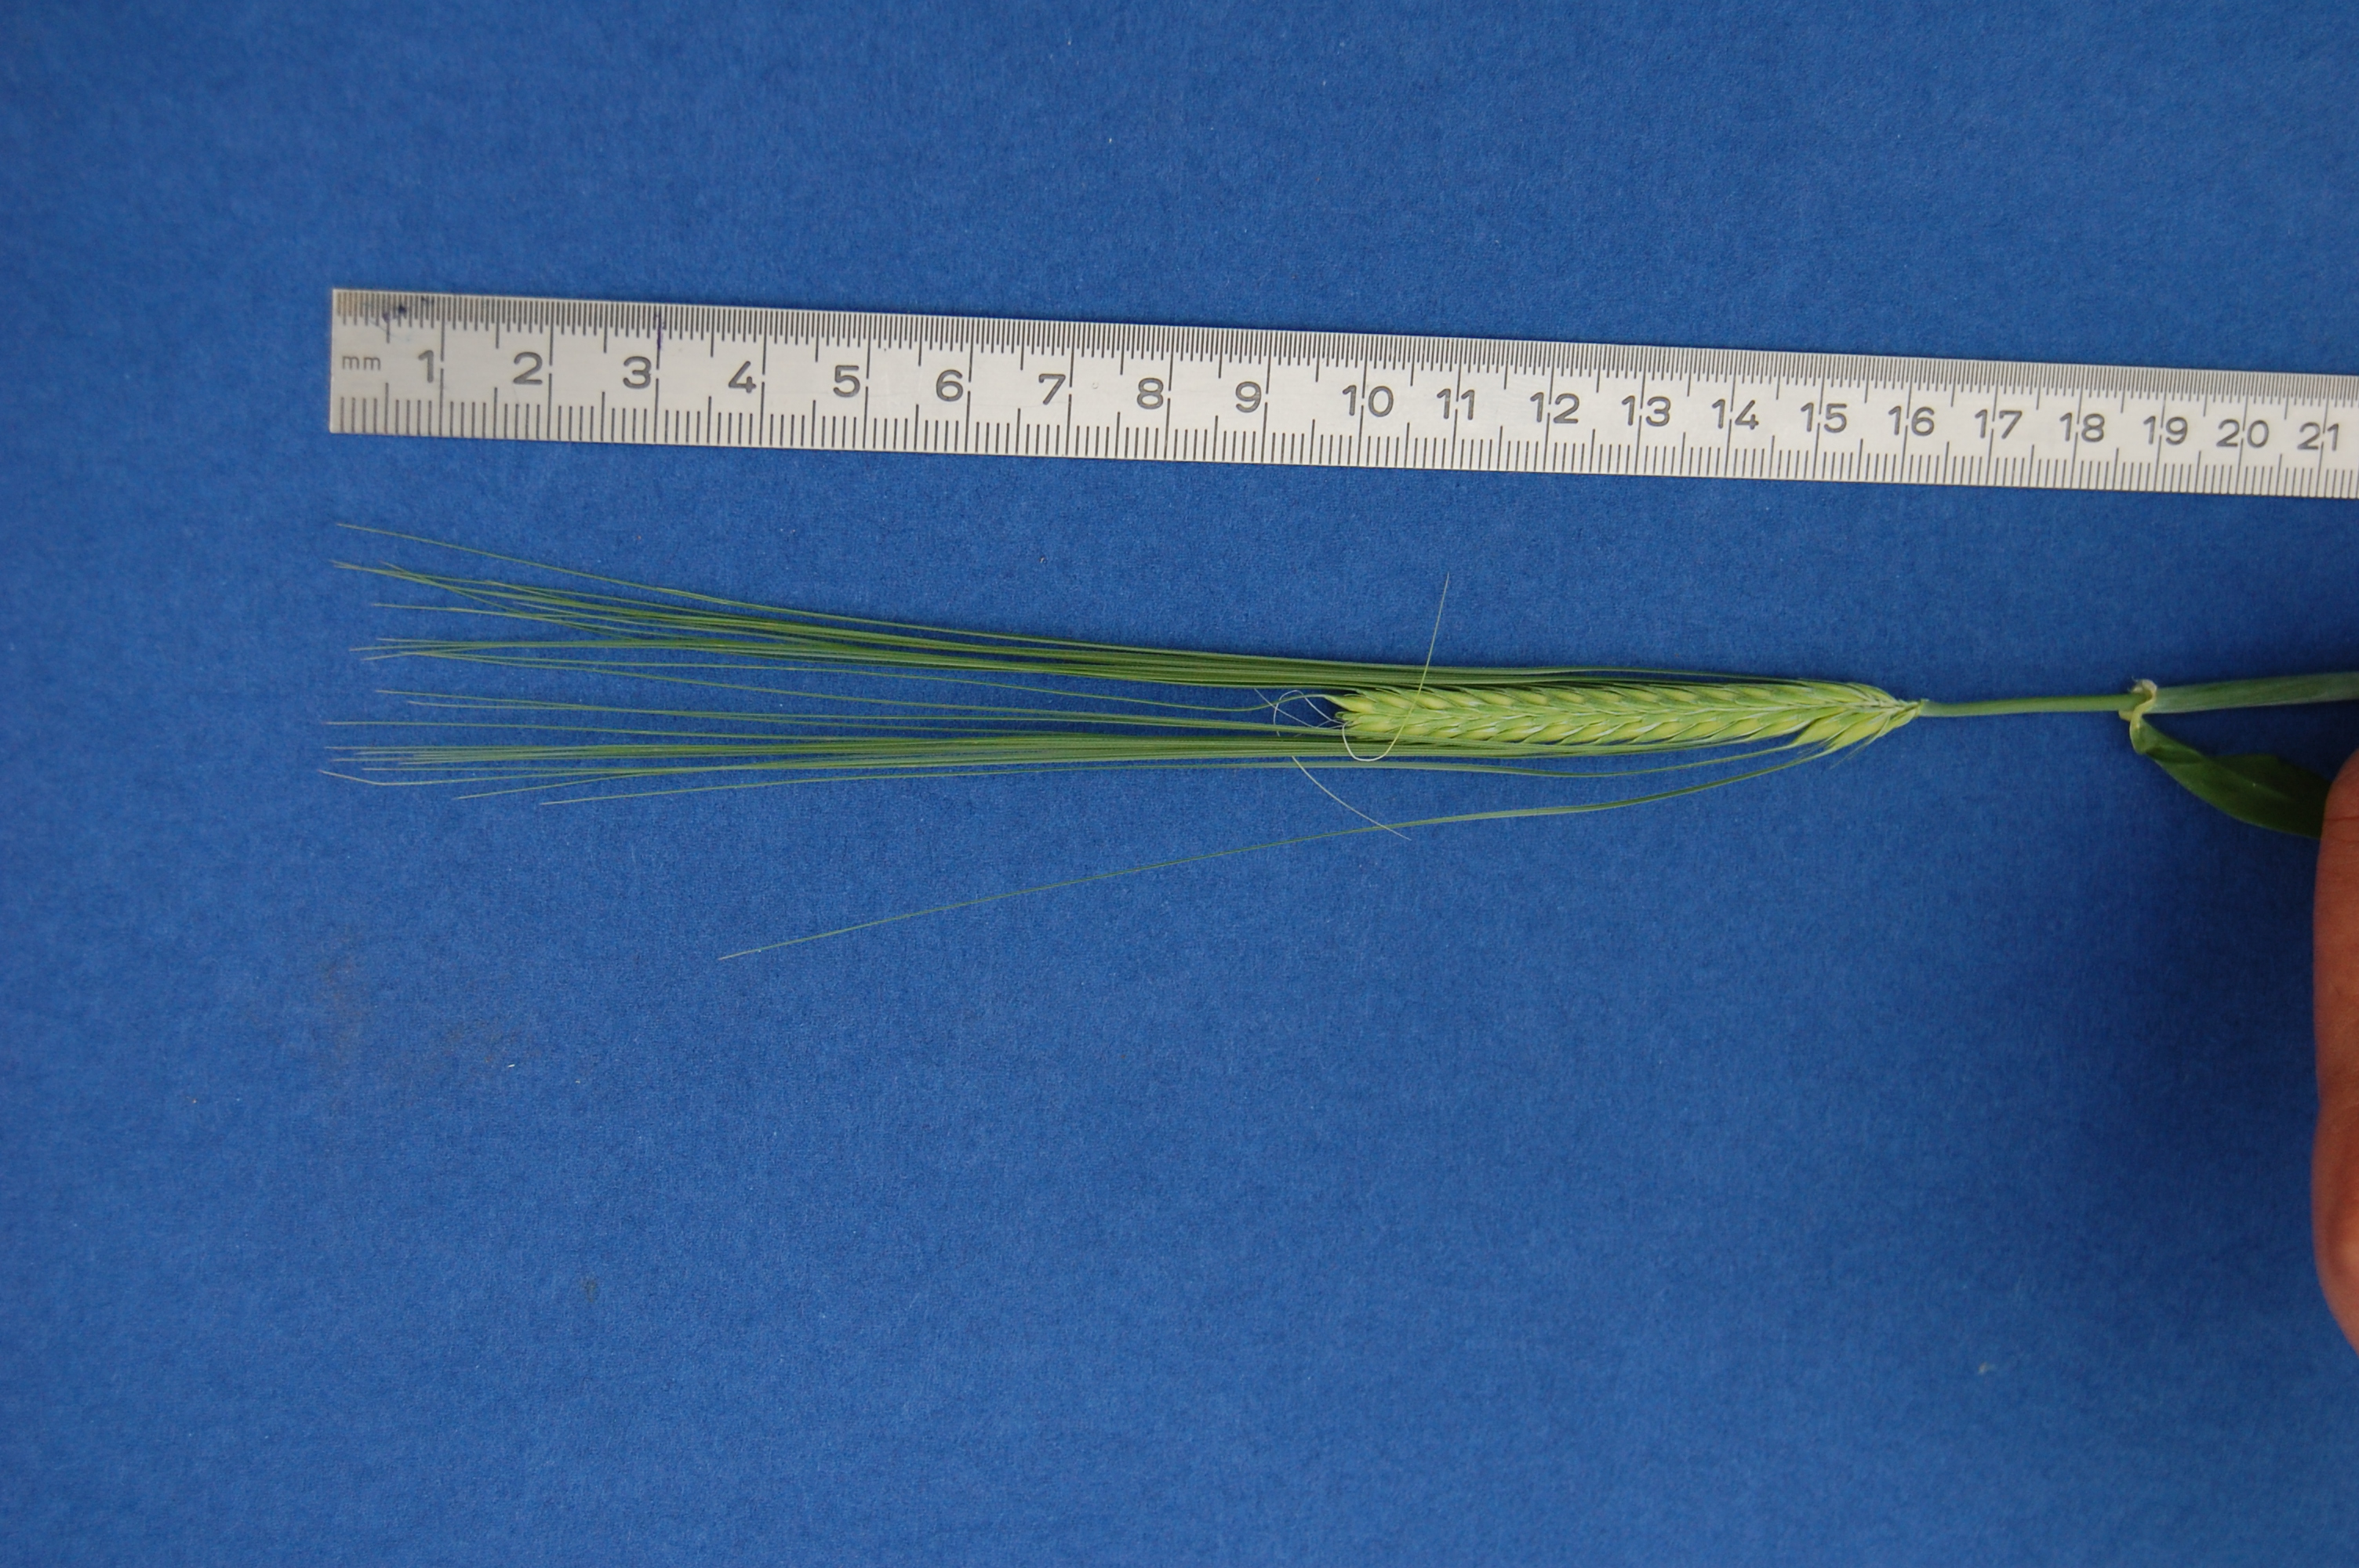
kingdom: Plantae
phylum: Tracheophyta
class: Liliopsida
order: Poales
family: Poaceae
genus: Hordeum
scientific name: Hordeum vulgare
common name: Common barley
